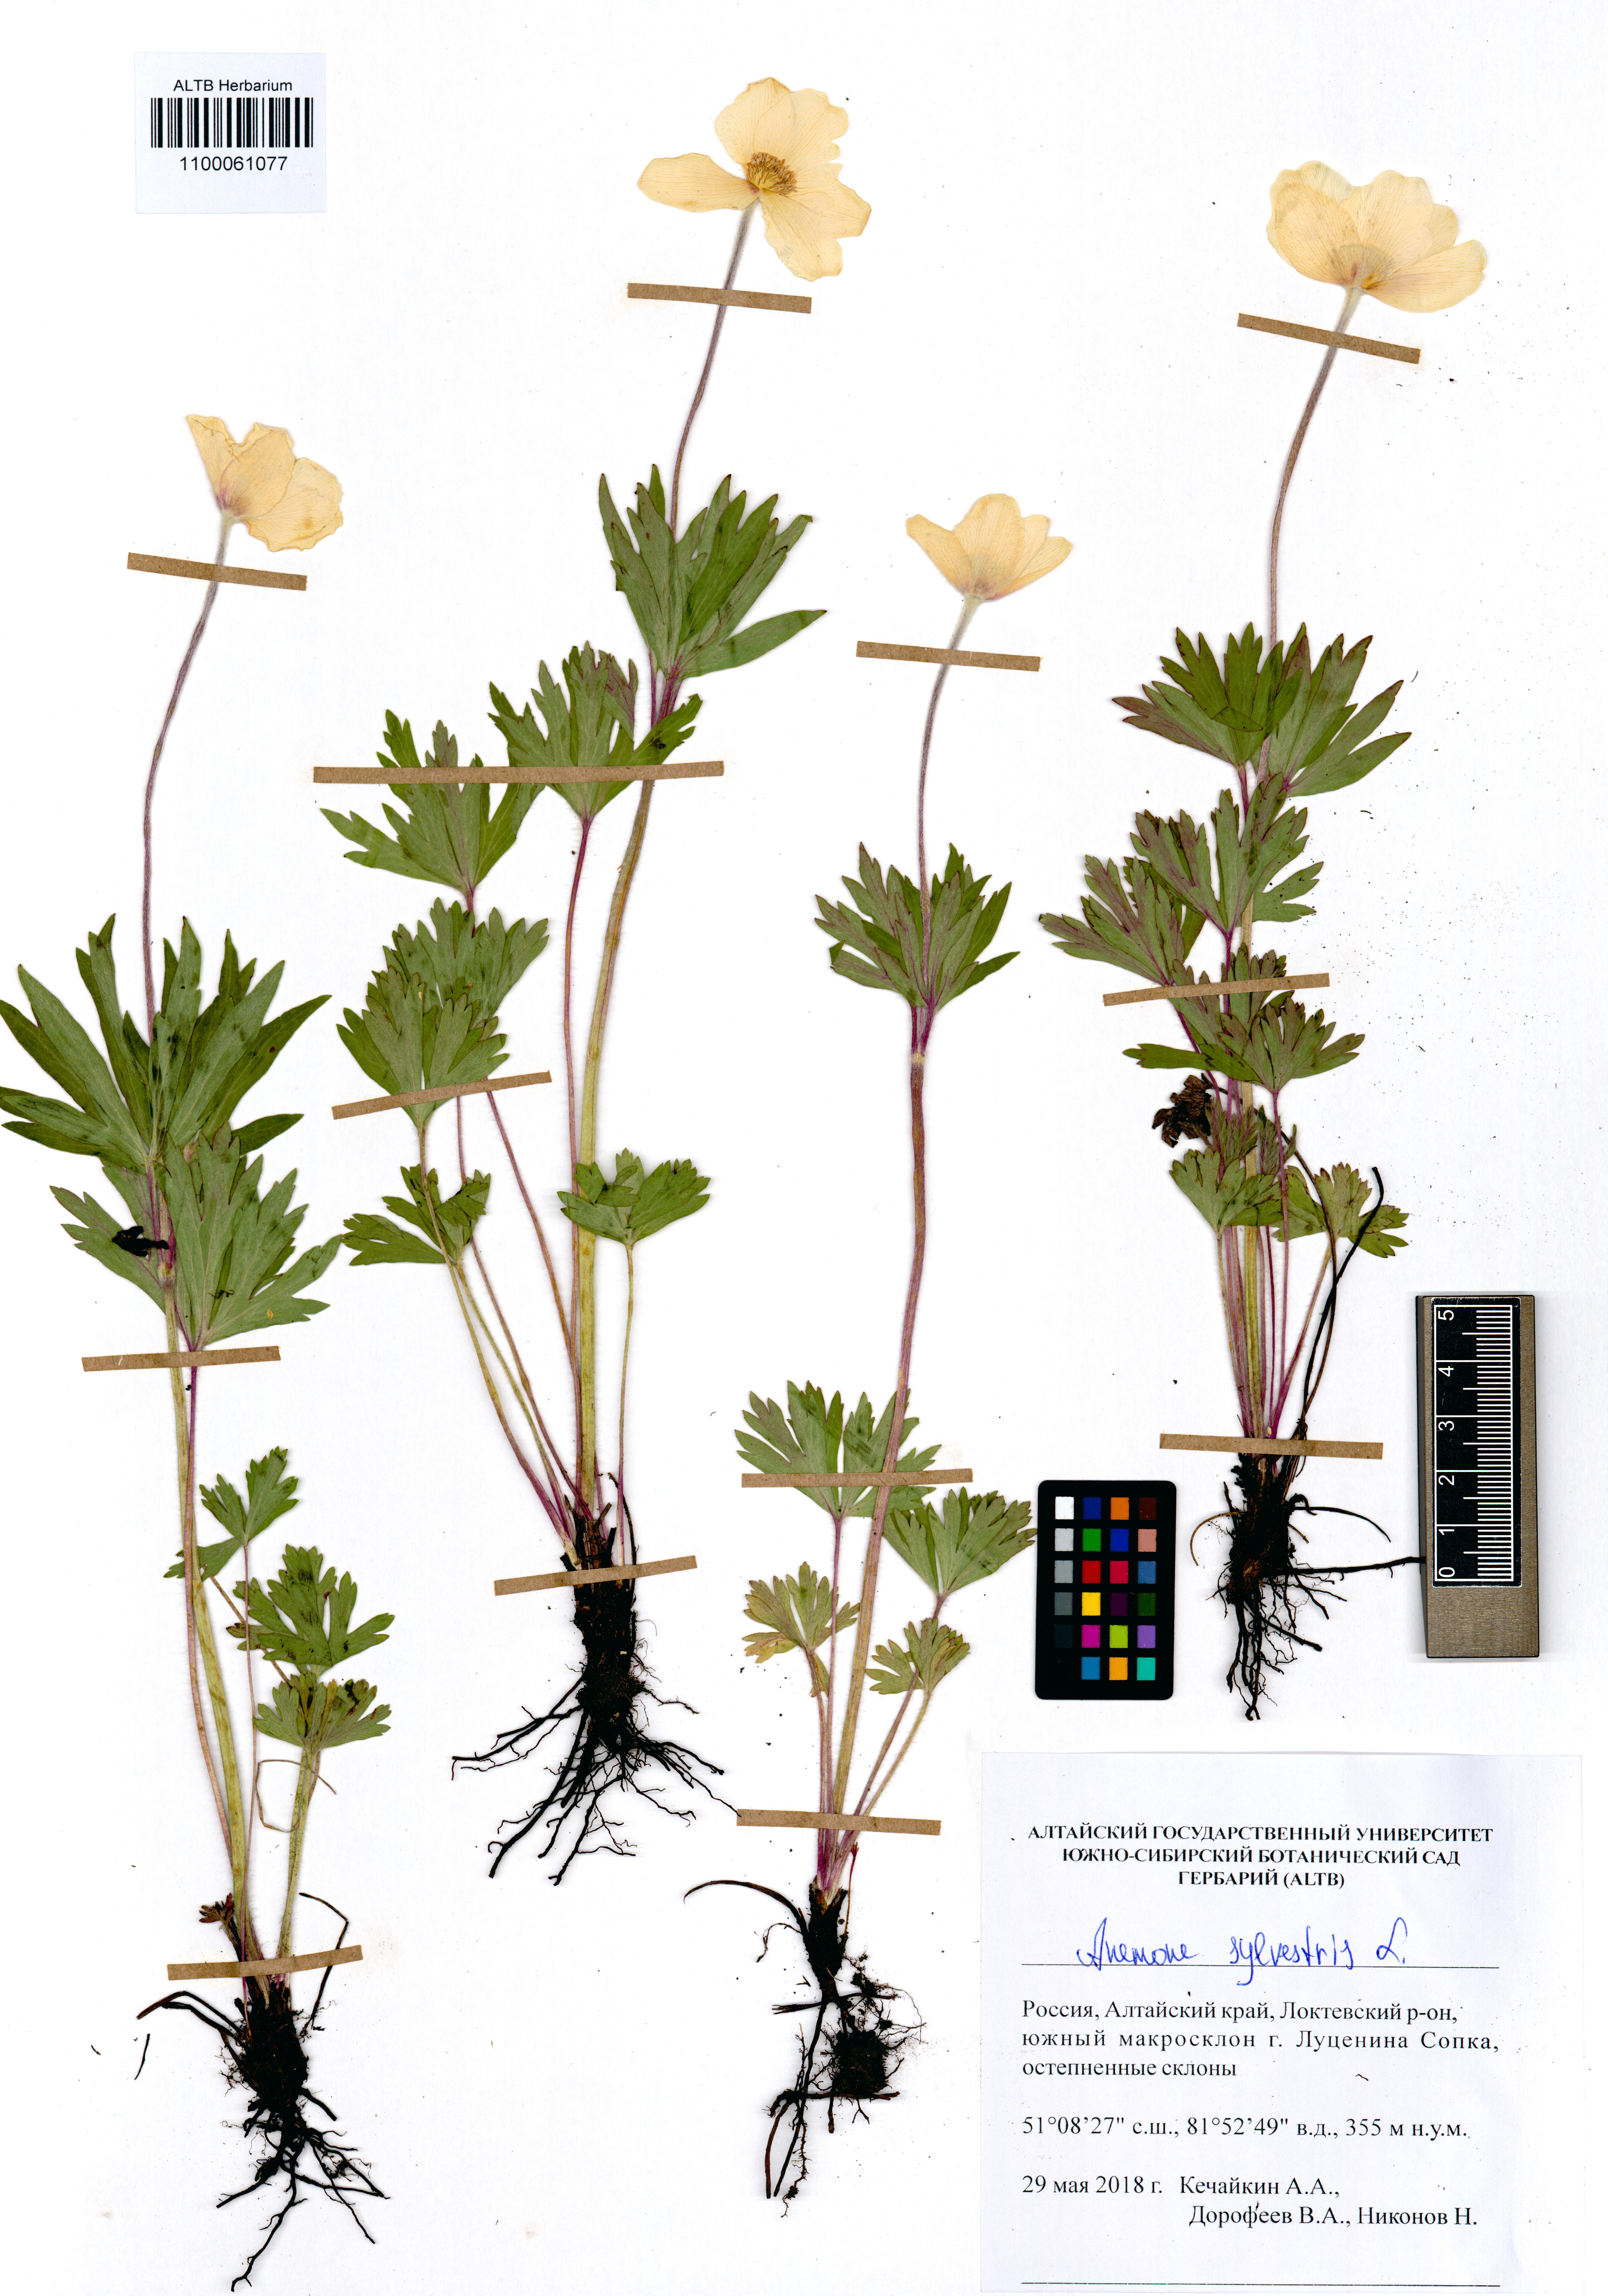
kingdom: Plantae
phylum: Tracheophyta
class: Magnoliopsida
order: Ranunculales
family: Ranunculaceae
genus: Anemone
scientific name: Anemone sylvestris
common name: Snowdrop anemone
